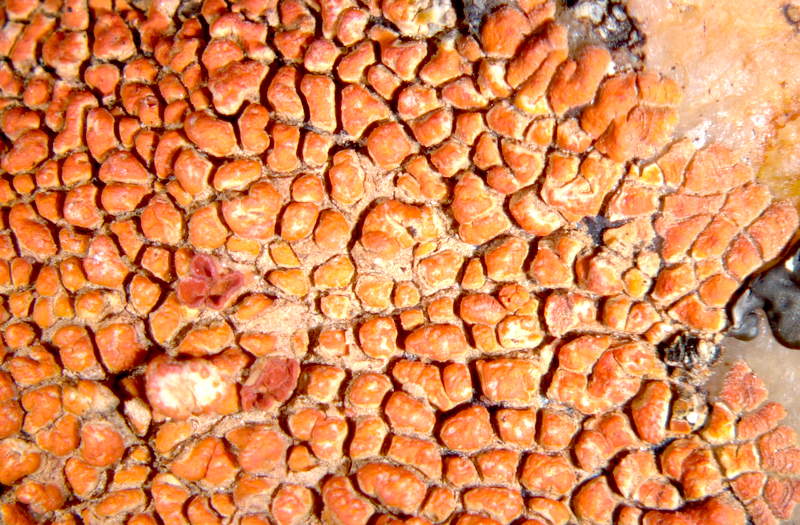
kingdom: Fungi
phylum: Ascomycota
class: Lecanoromycetes
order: Teloschistales
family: Teloschistaceae
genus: Caloplaca
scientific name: Caloplaca
